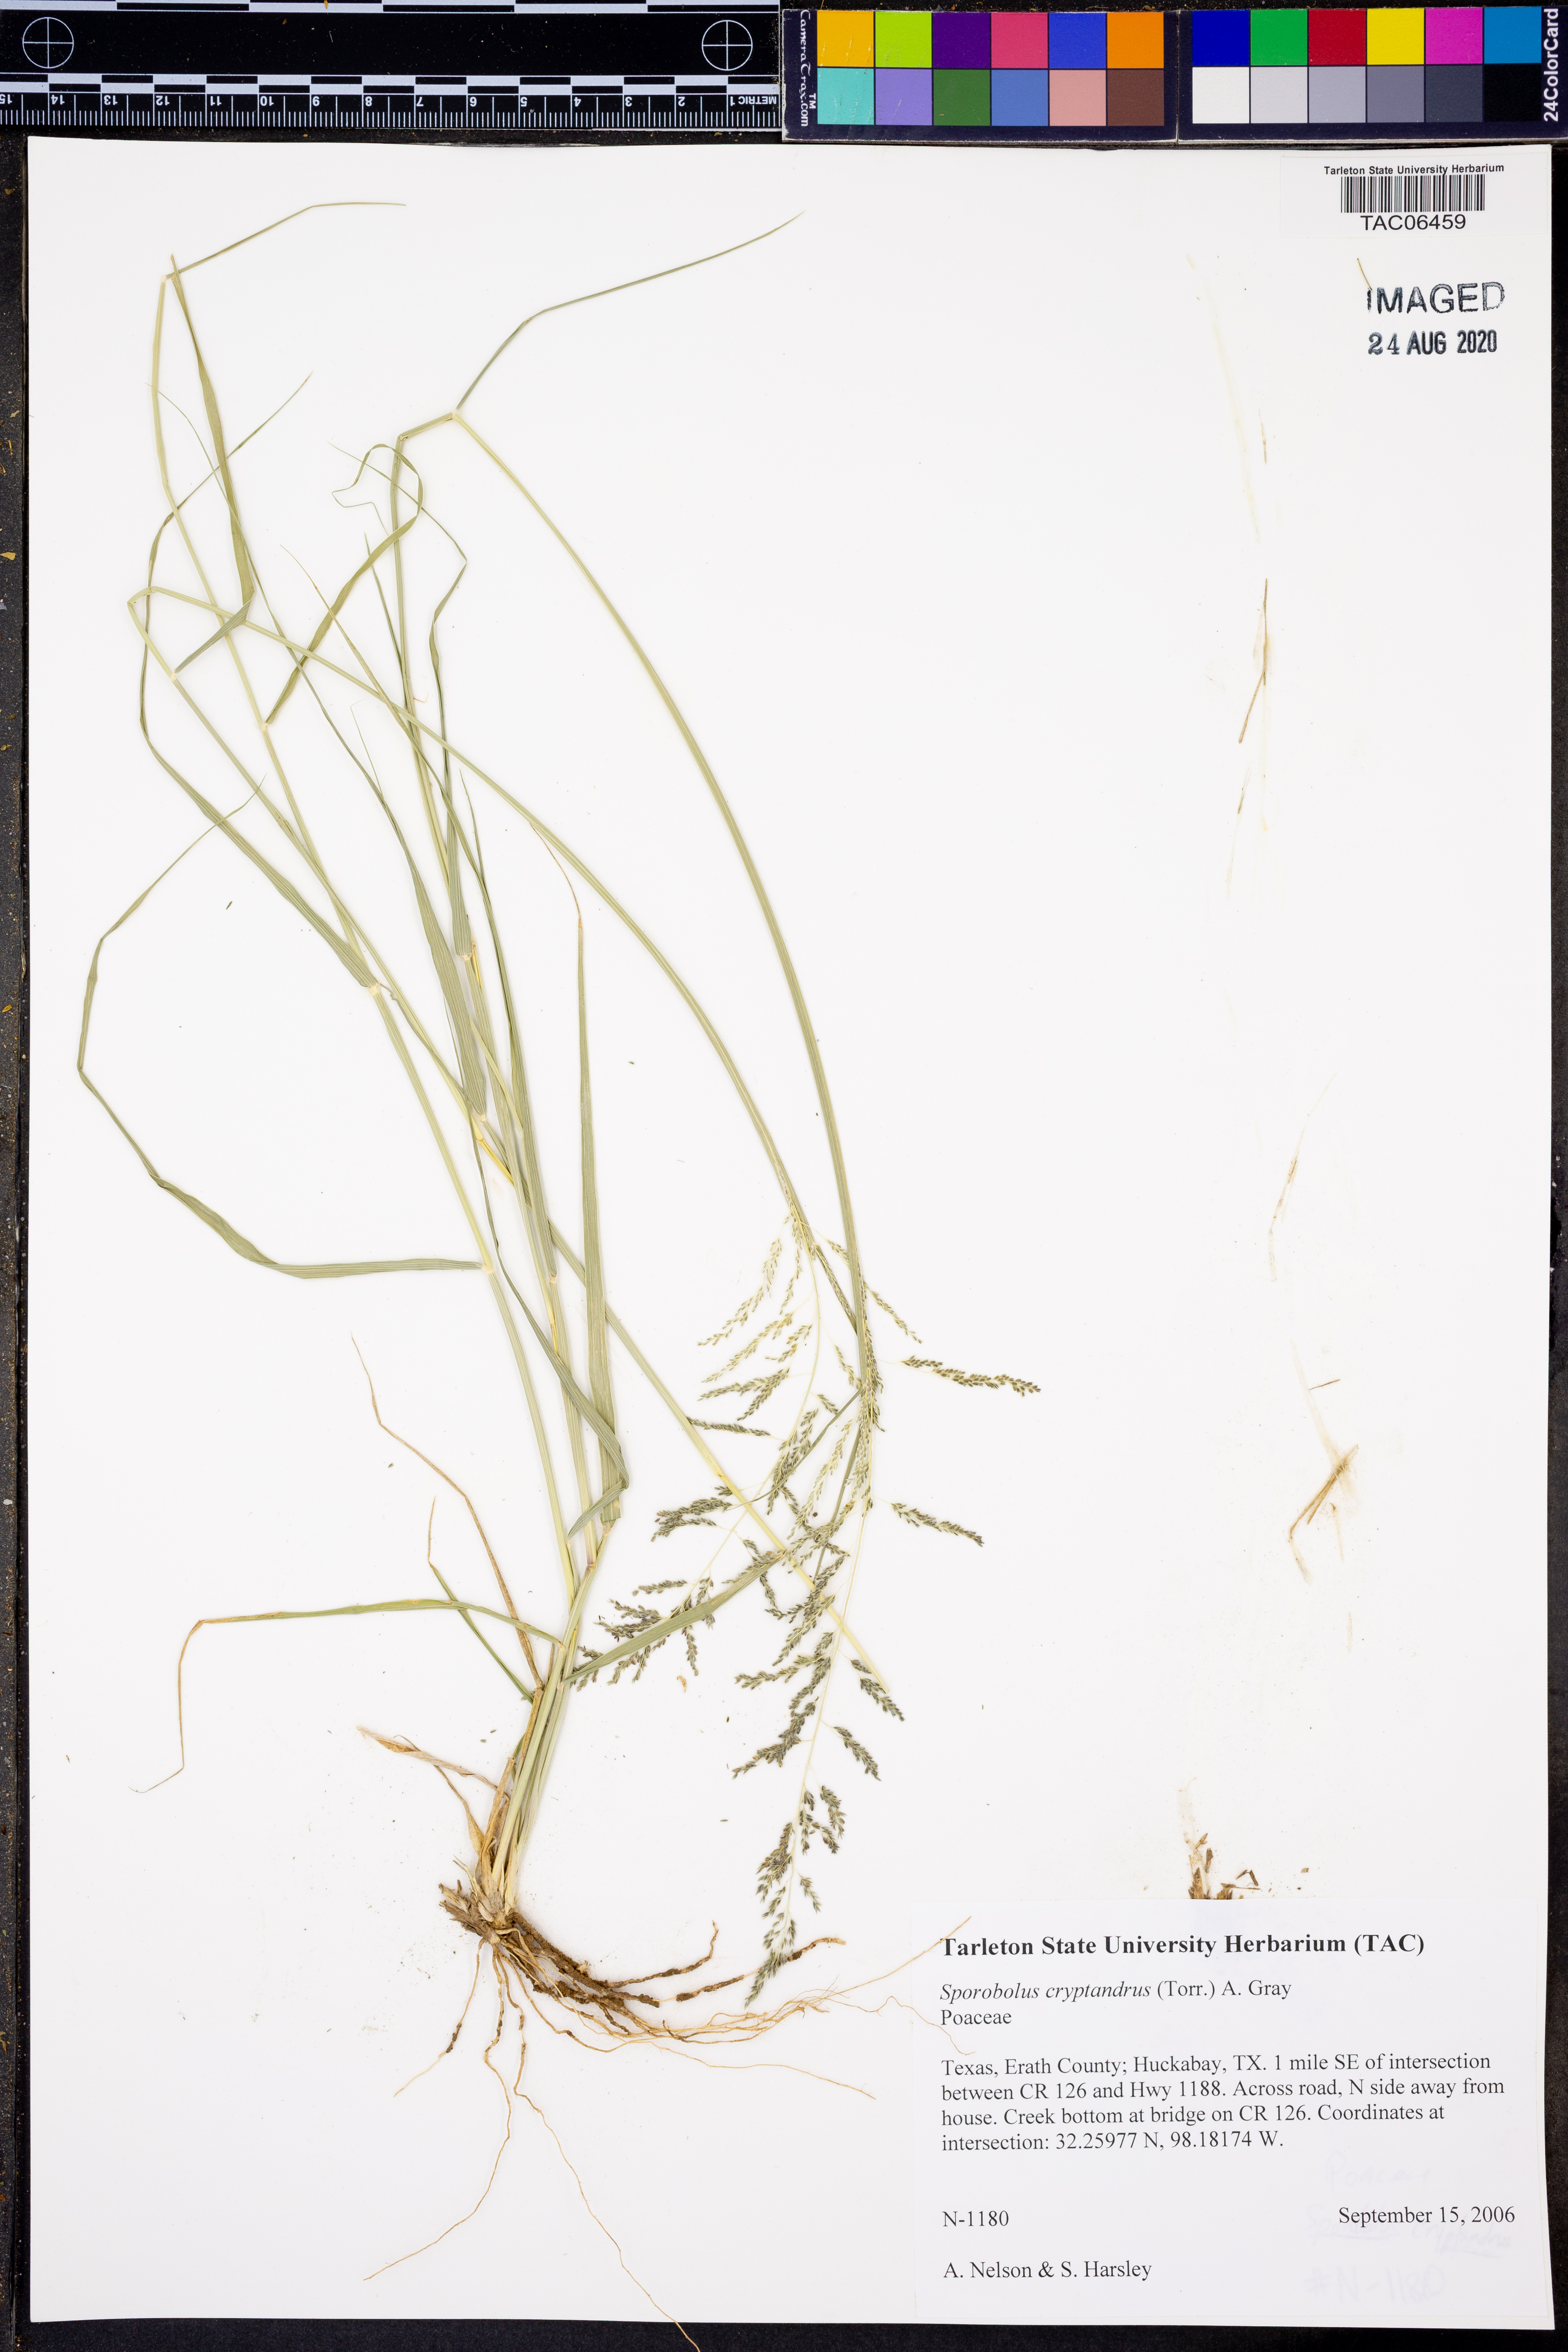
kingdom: Plantae
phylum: Tracheophyta
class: Liliopsida
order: Poales
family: Poaceae
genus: Sporobolus
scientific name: Sporobolus cryptandrus
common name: Sand dropseed
